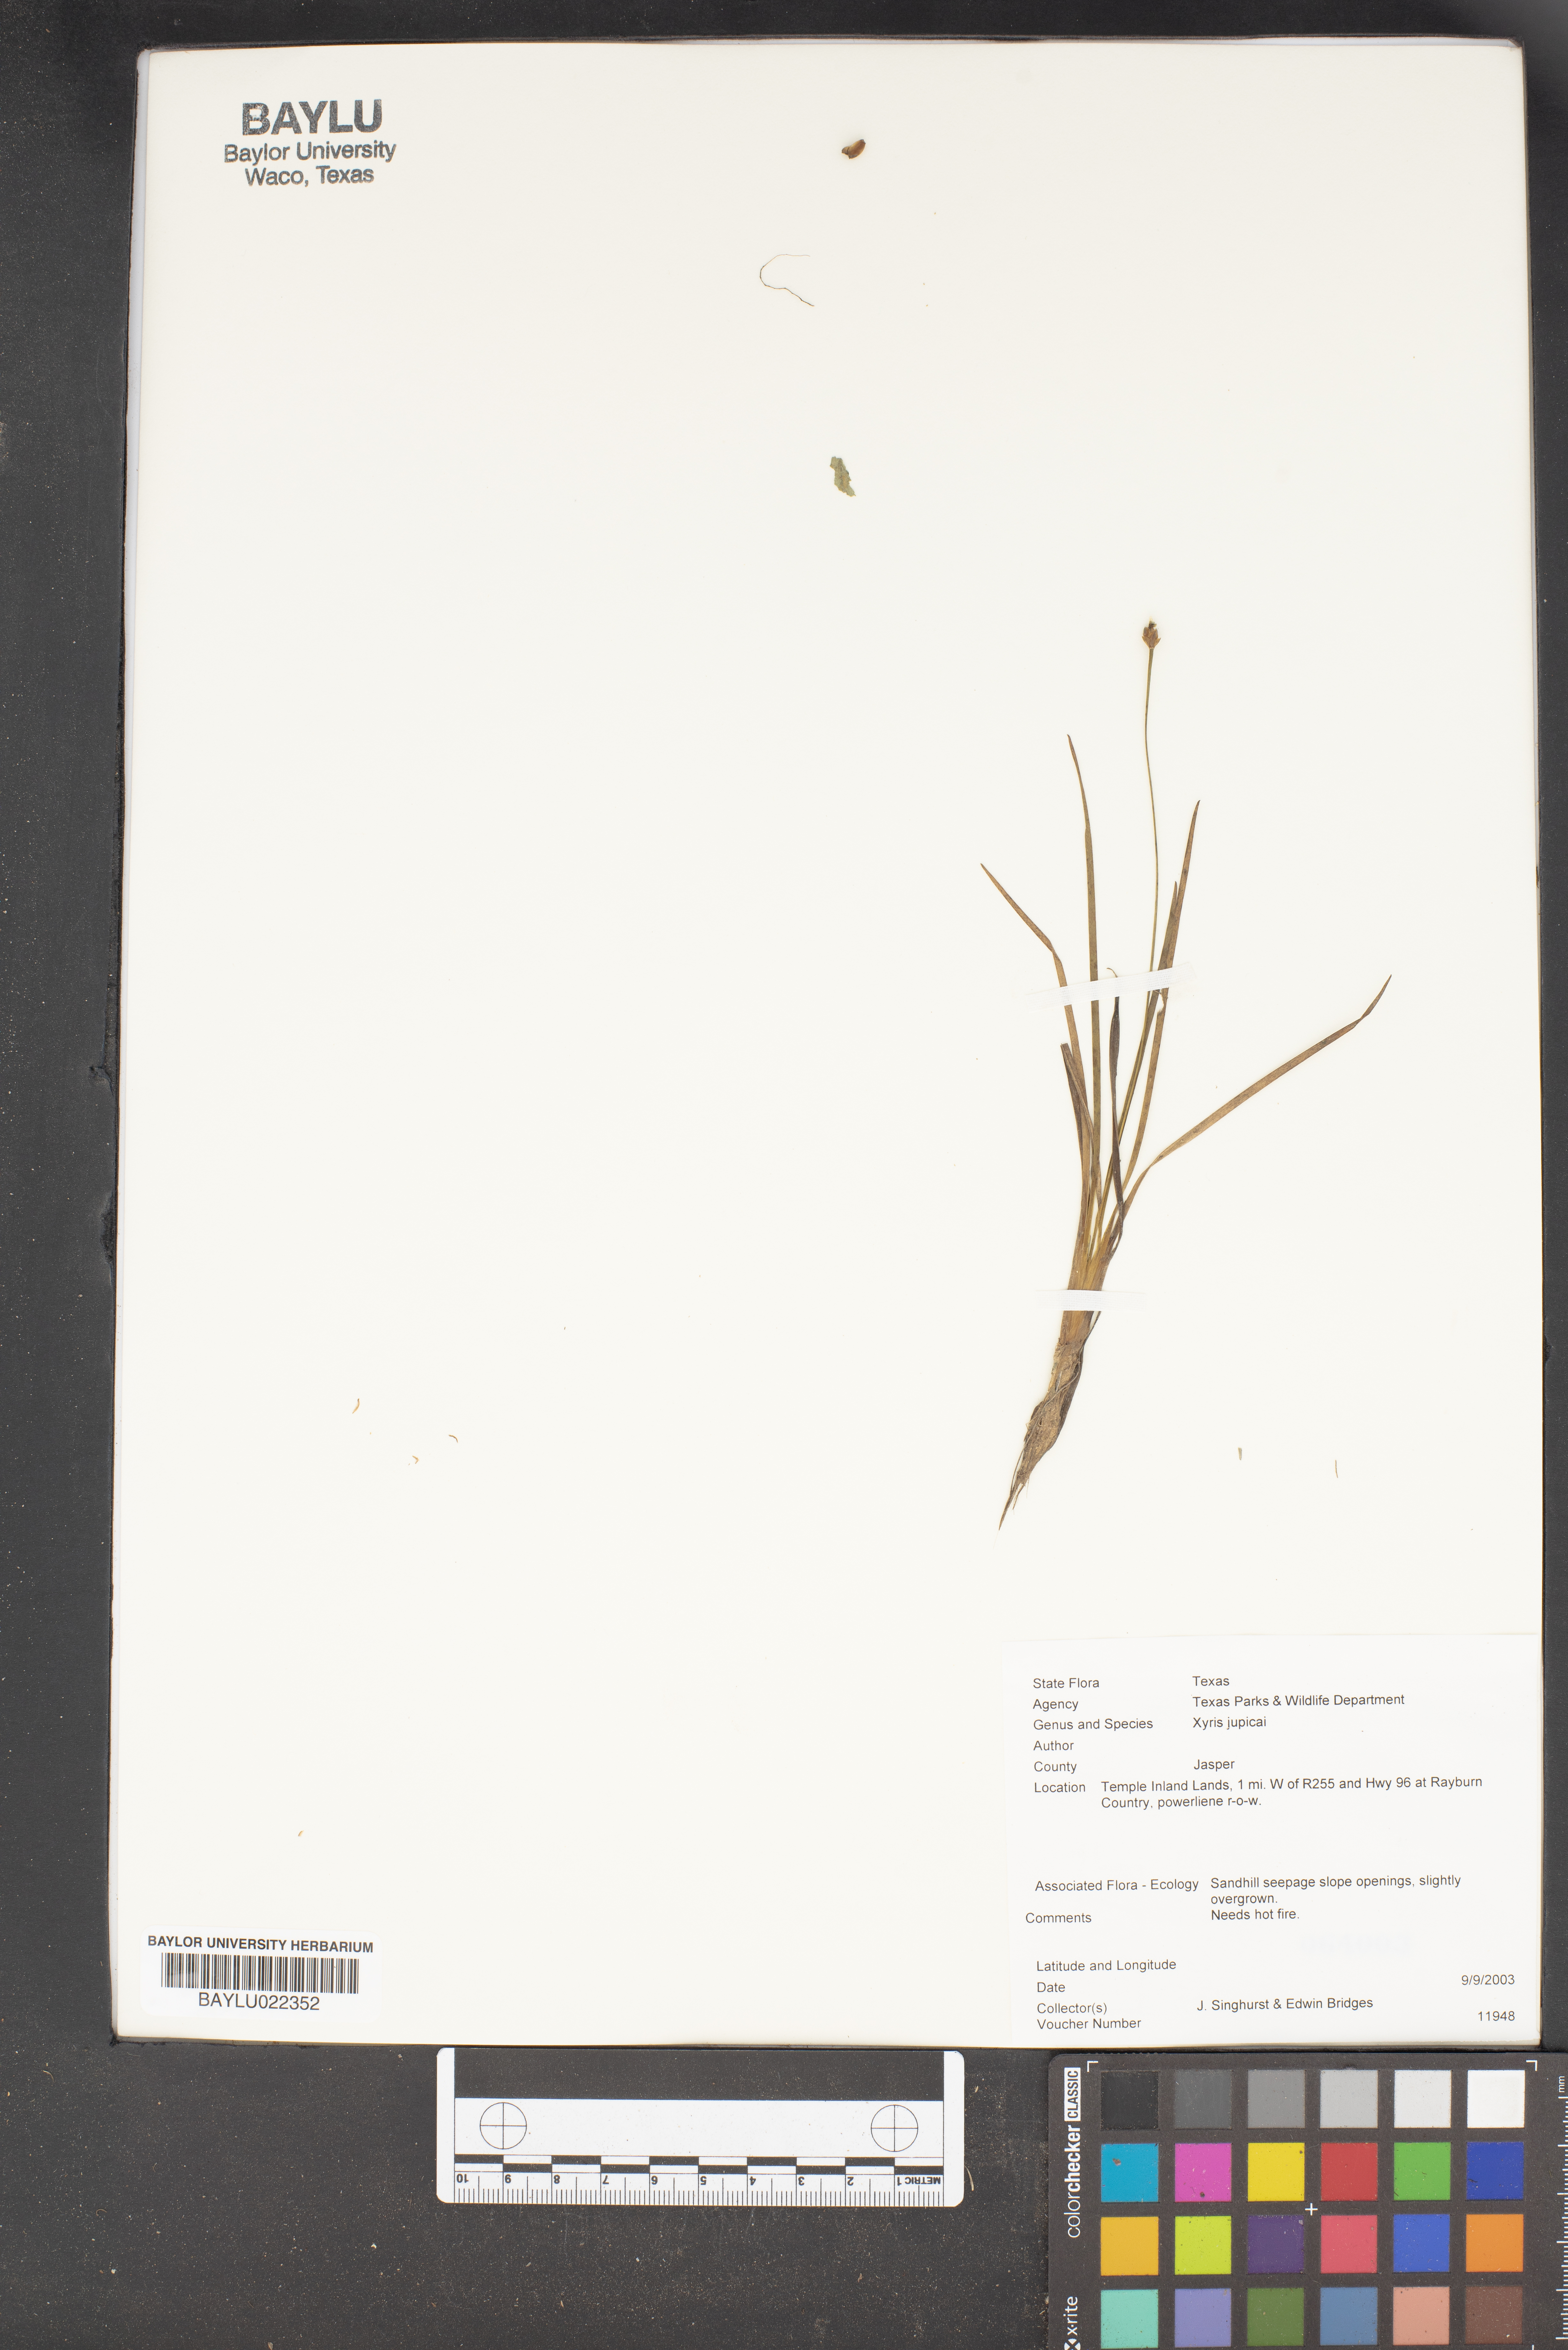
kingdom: Plantae
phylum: Tracheophyta
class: Liliopsida
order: Poales
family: Xyridaceae
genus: Xyris
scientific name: Xyris jupicai
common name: Richard's yelloweyed grass
